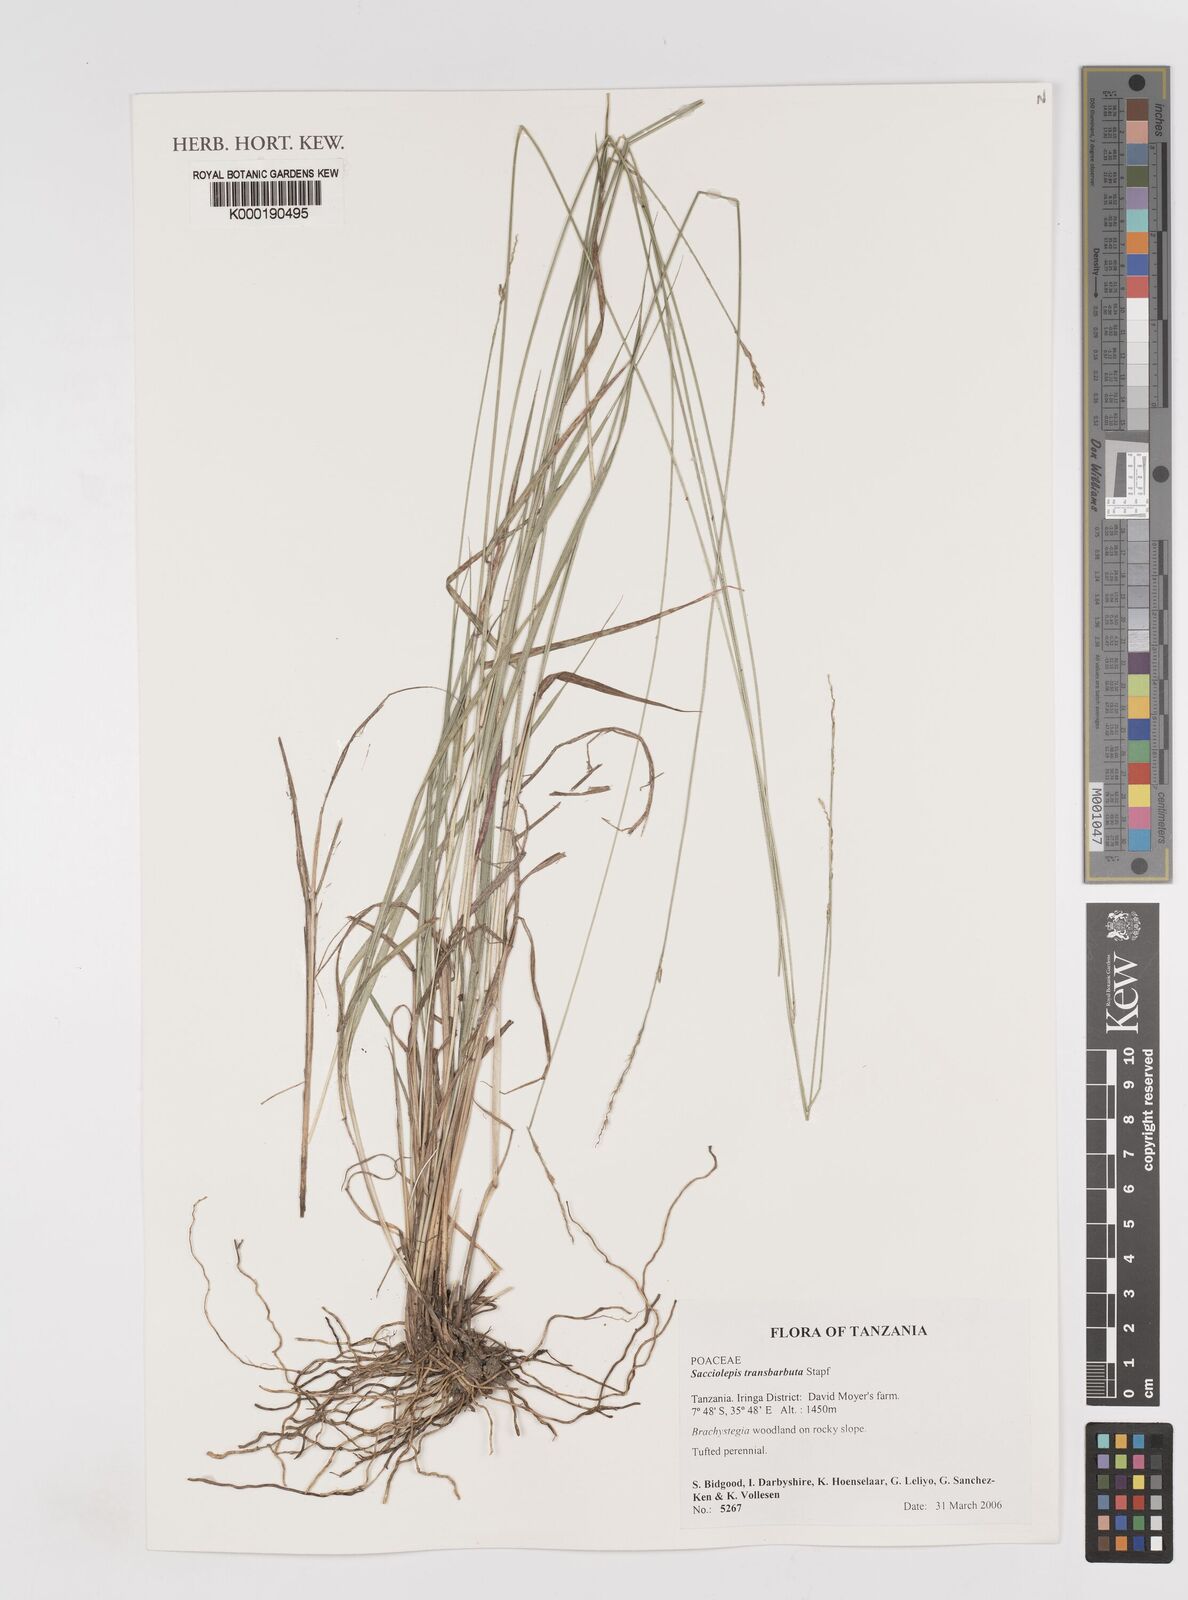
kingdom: Plantae
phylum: Tracheophyta
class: Liliopsida
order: Poales
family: Poaceae
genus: Sacciolepis
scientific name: Sacciolepis
